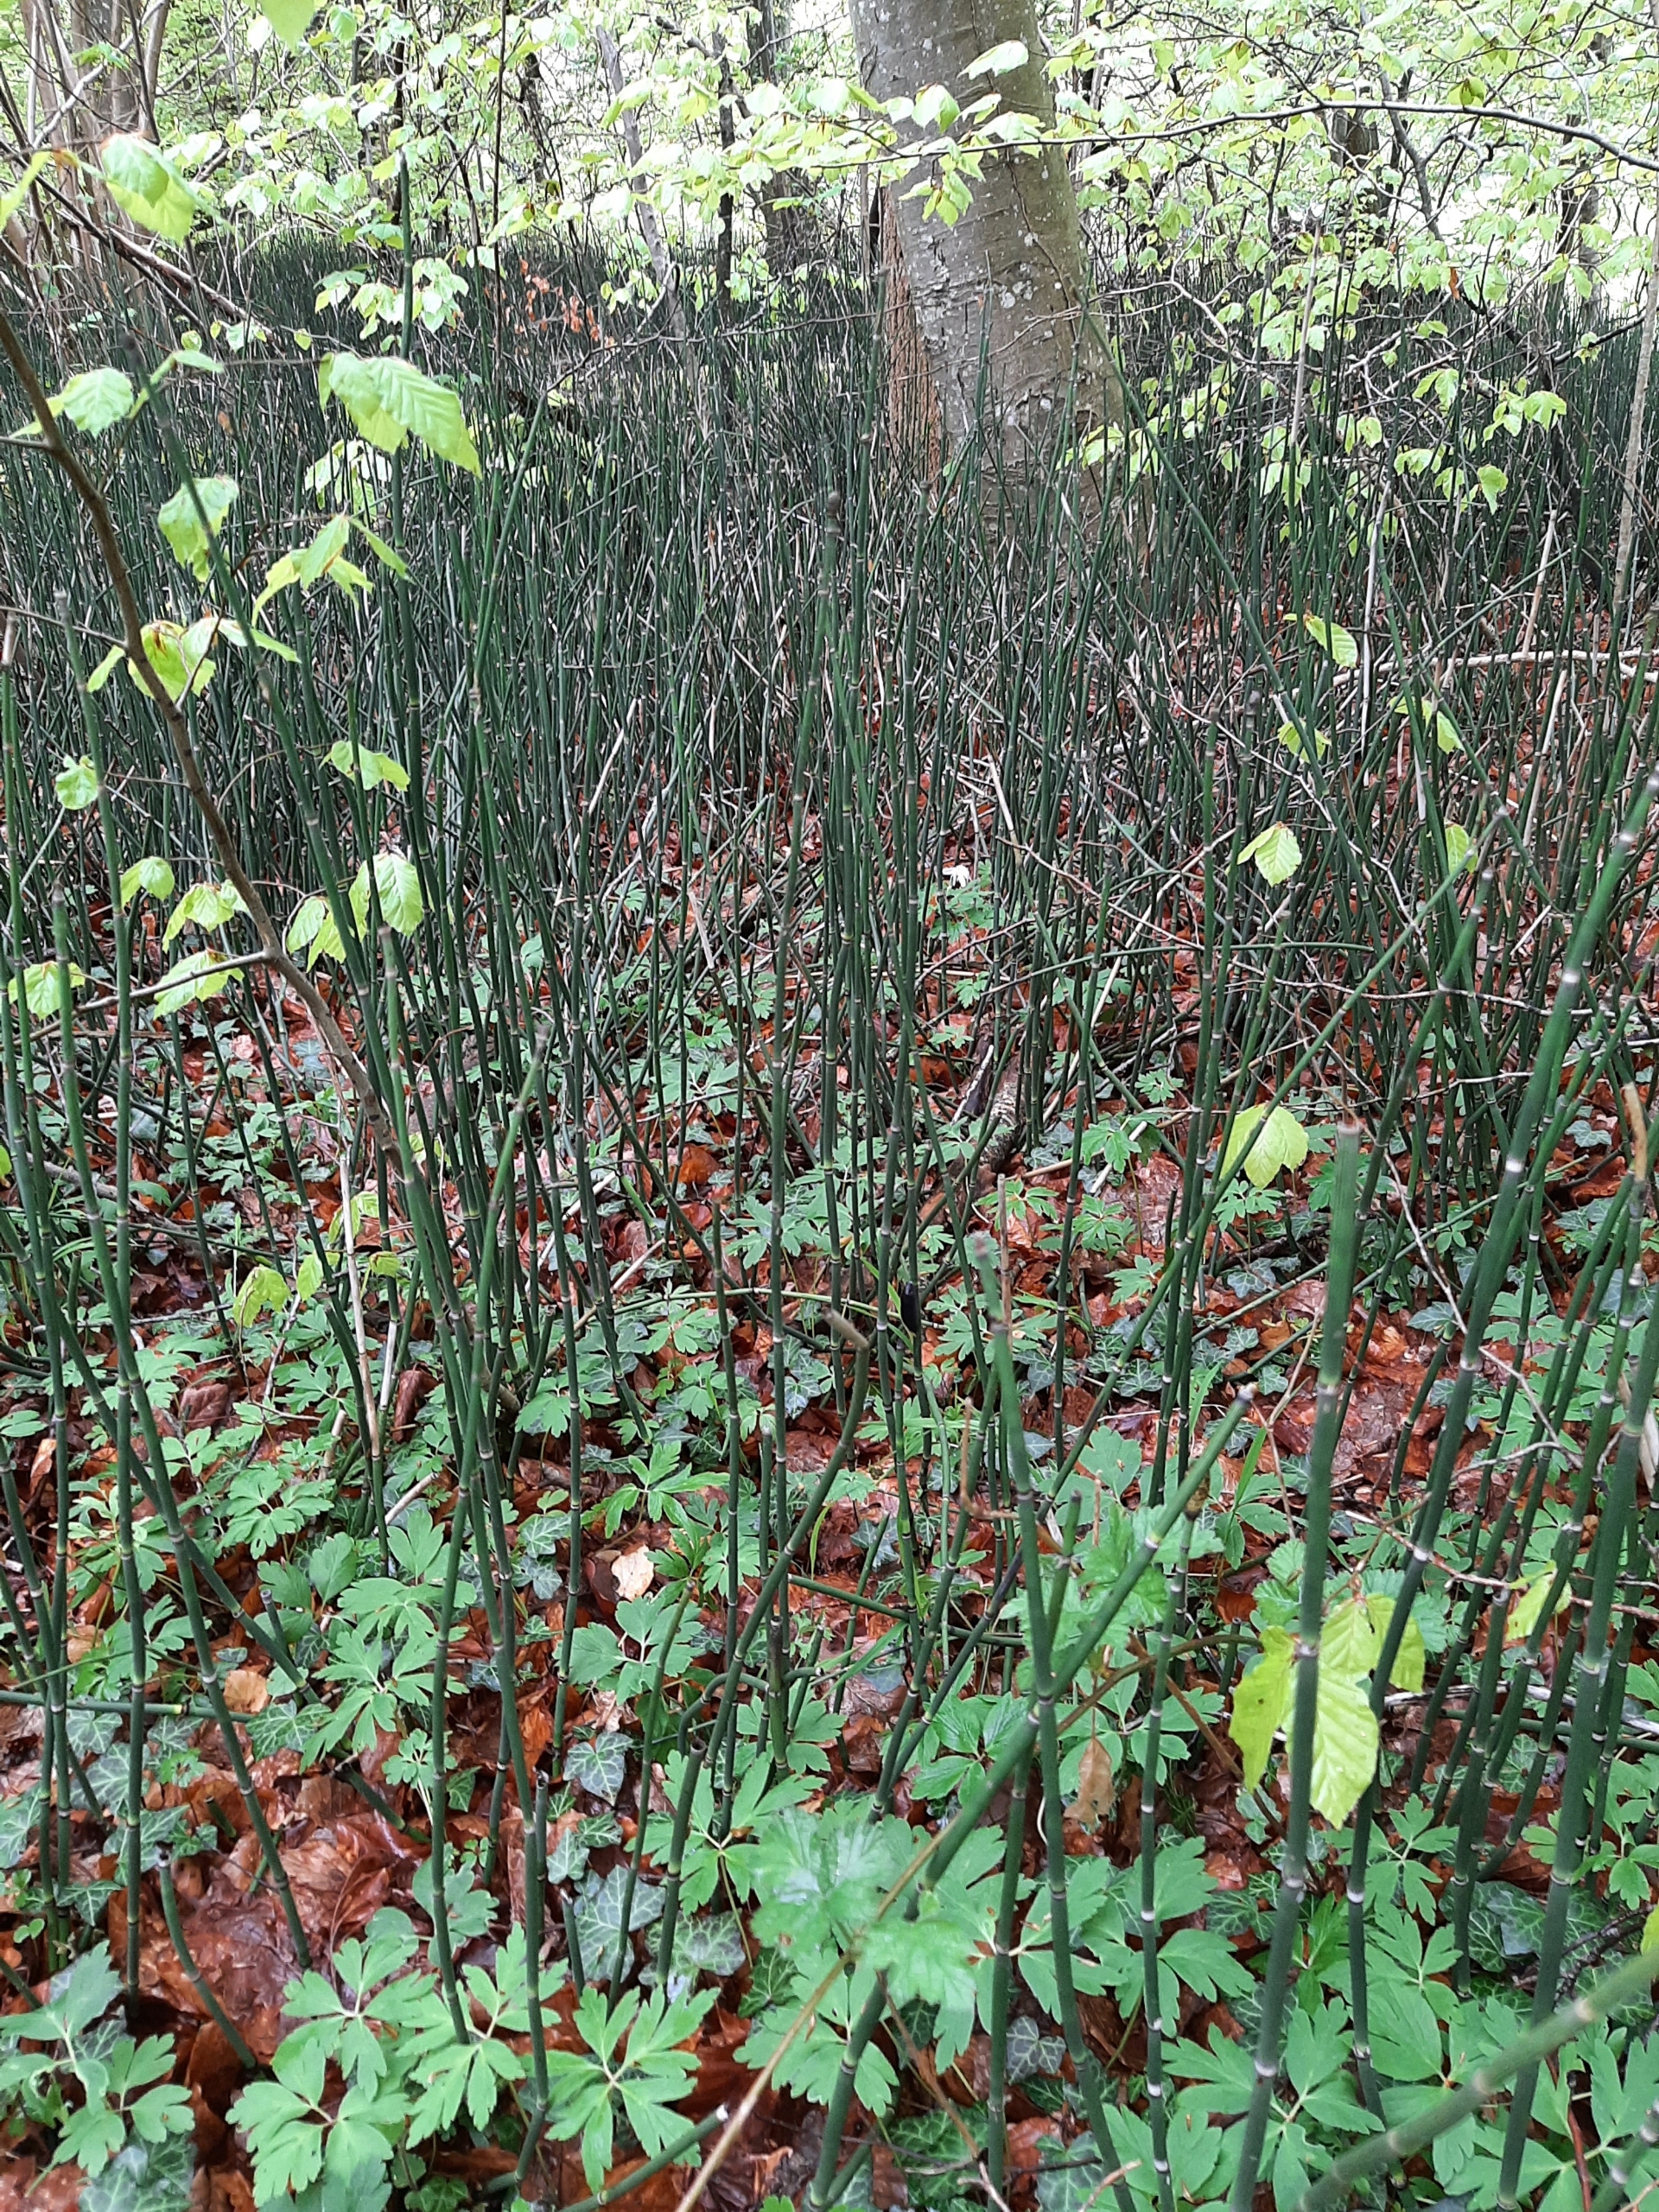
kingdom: Plantae
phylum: Tracheophyta
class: Polypodiopsida
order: Equisetales
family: Equisetaceae
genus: Equisetum
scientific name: Equisetum hyemale
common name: Skavgræs
